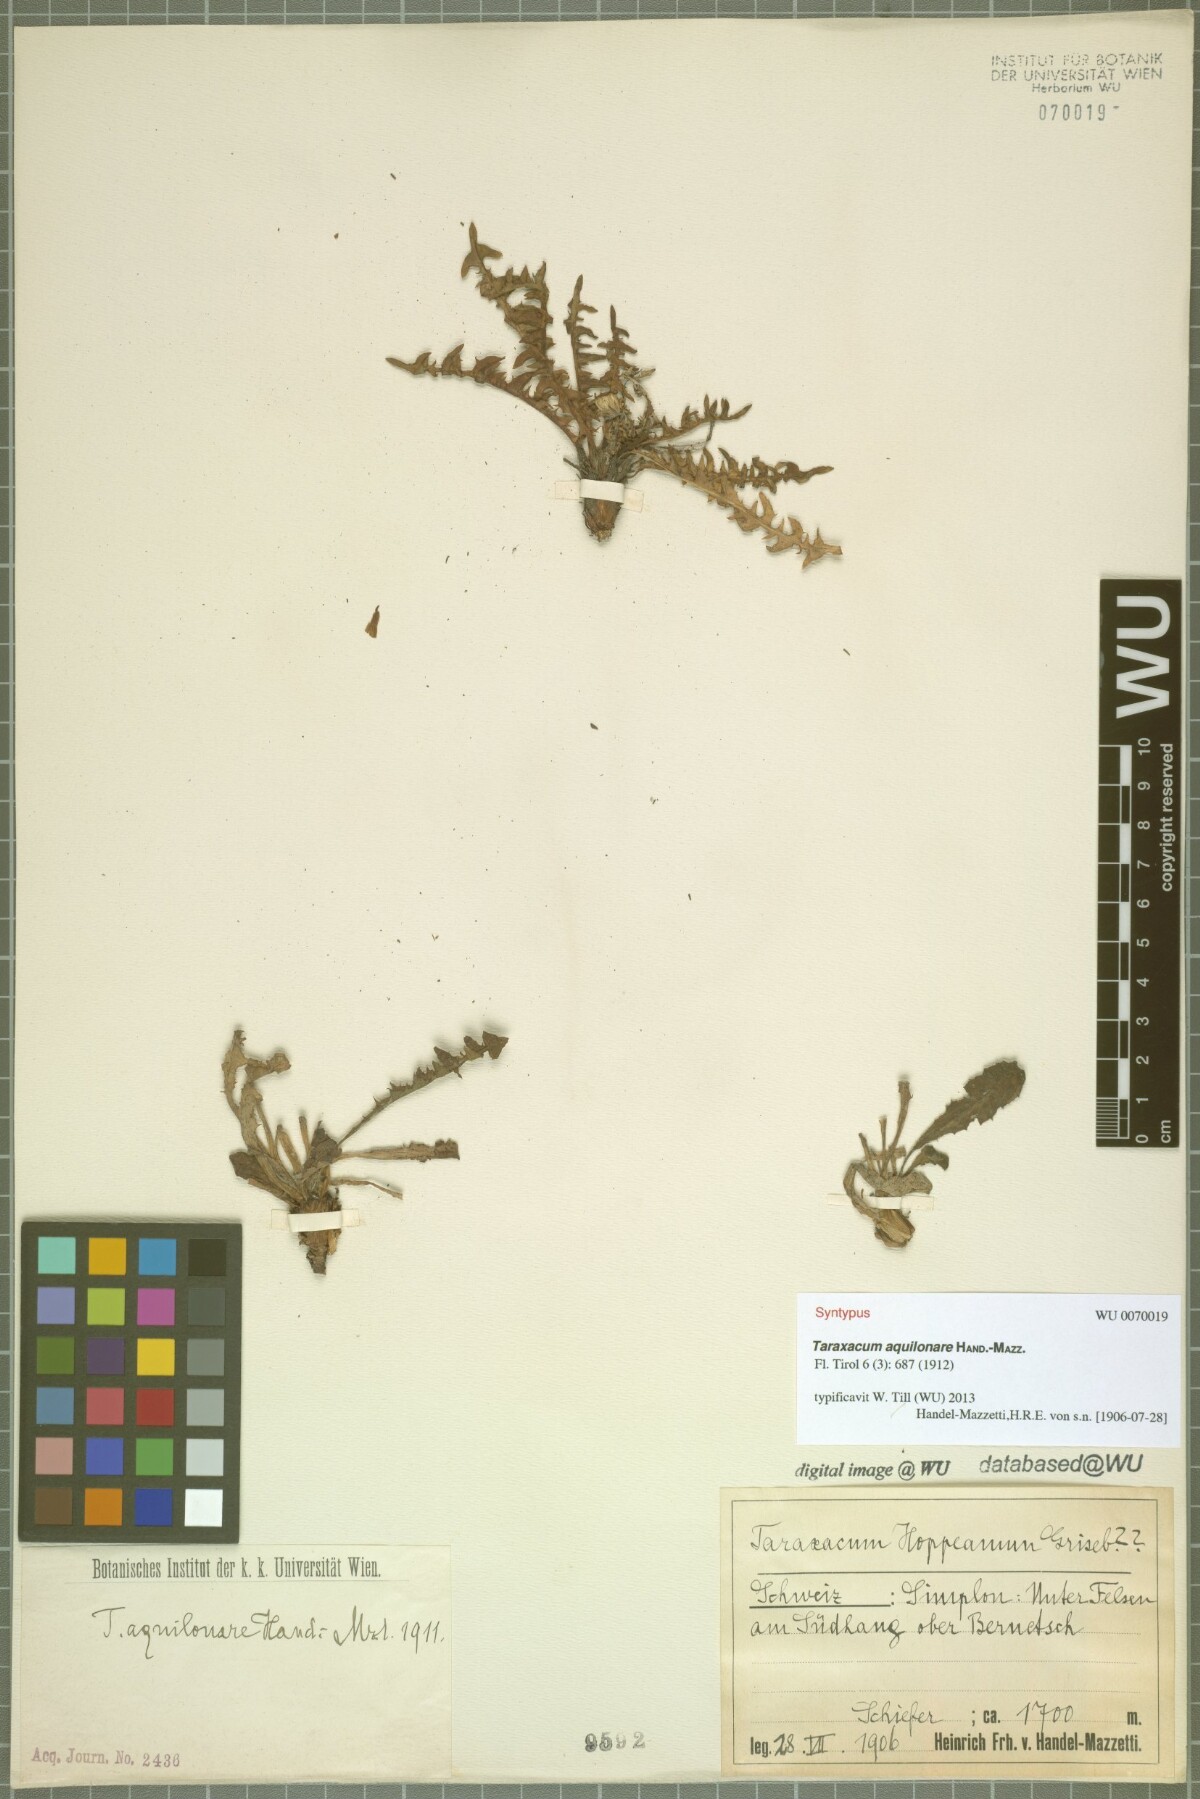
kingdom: Plantae
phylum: Tracheophyta
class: Magnoliopsida
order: Asterales
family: Asteraceae
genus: Taraxacum
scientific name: Taraxacum aquilonare
